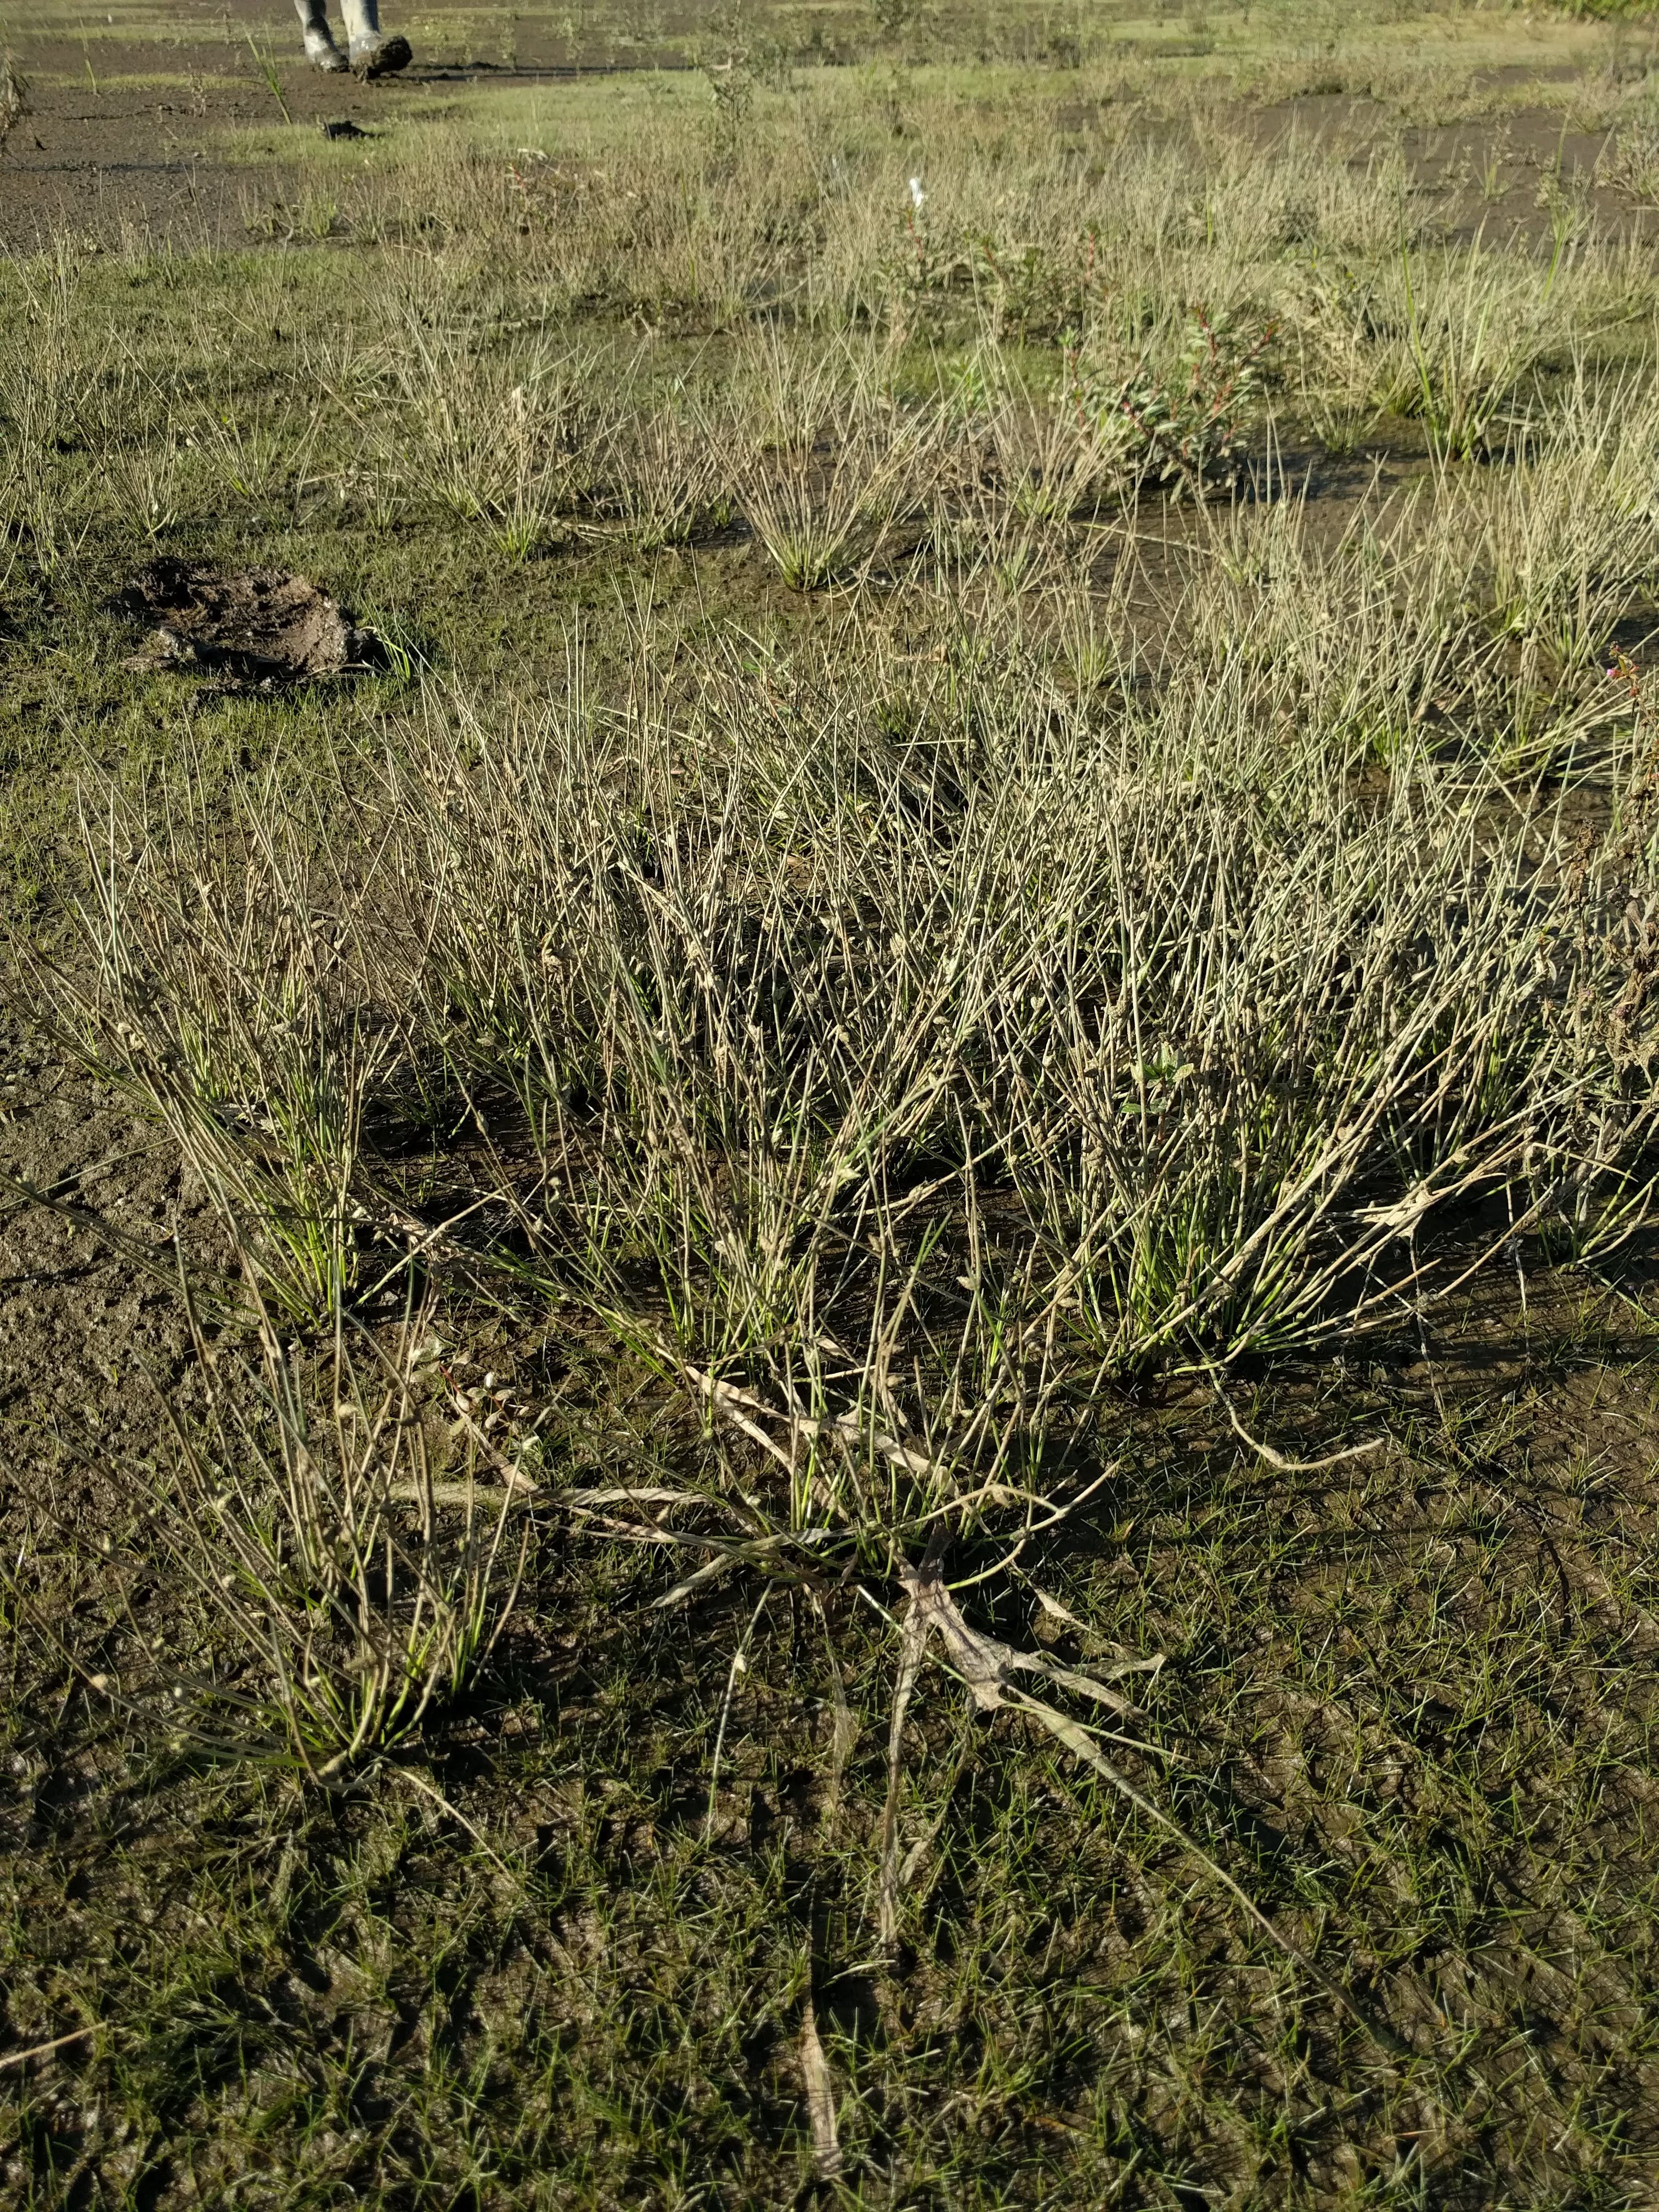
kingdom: Plantae
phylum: Tracheophyta
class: Liliopsida
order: Poales
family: Cyperaceae
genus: Schoenoplectiella
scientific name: Schoenoplectiella smithii
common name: Smith's bulrush
